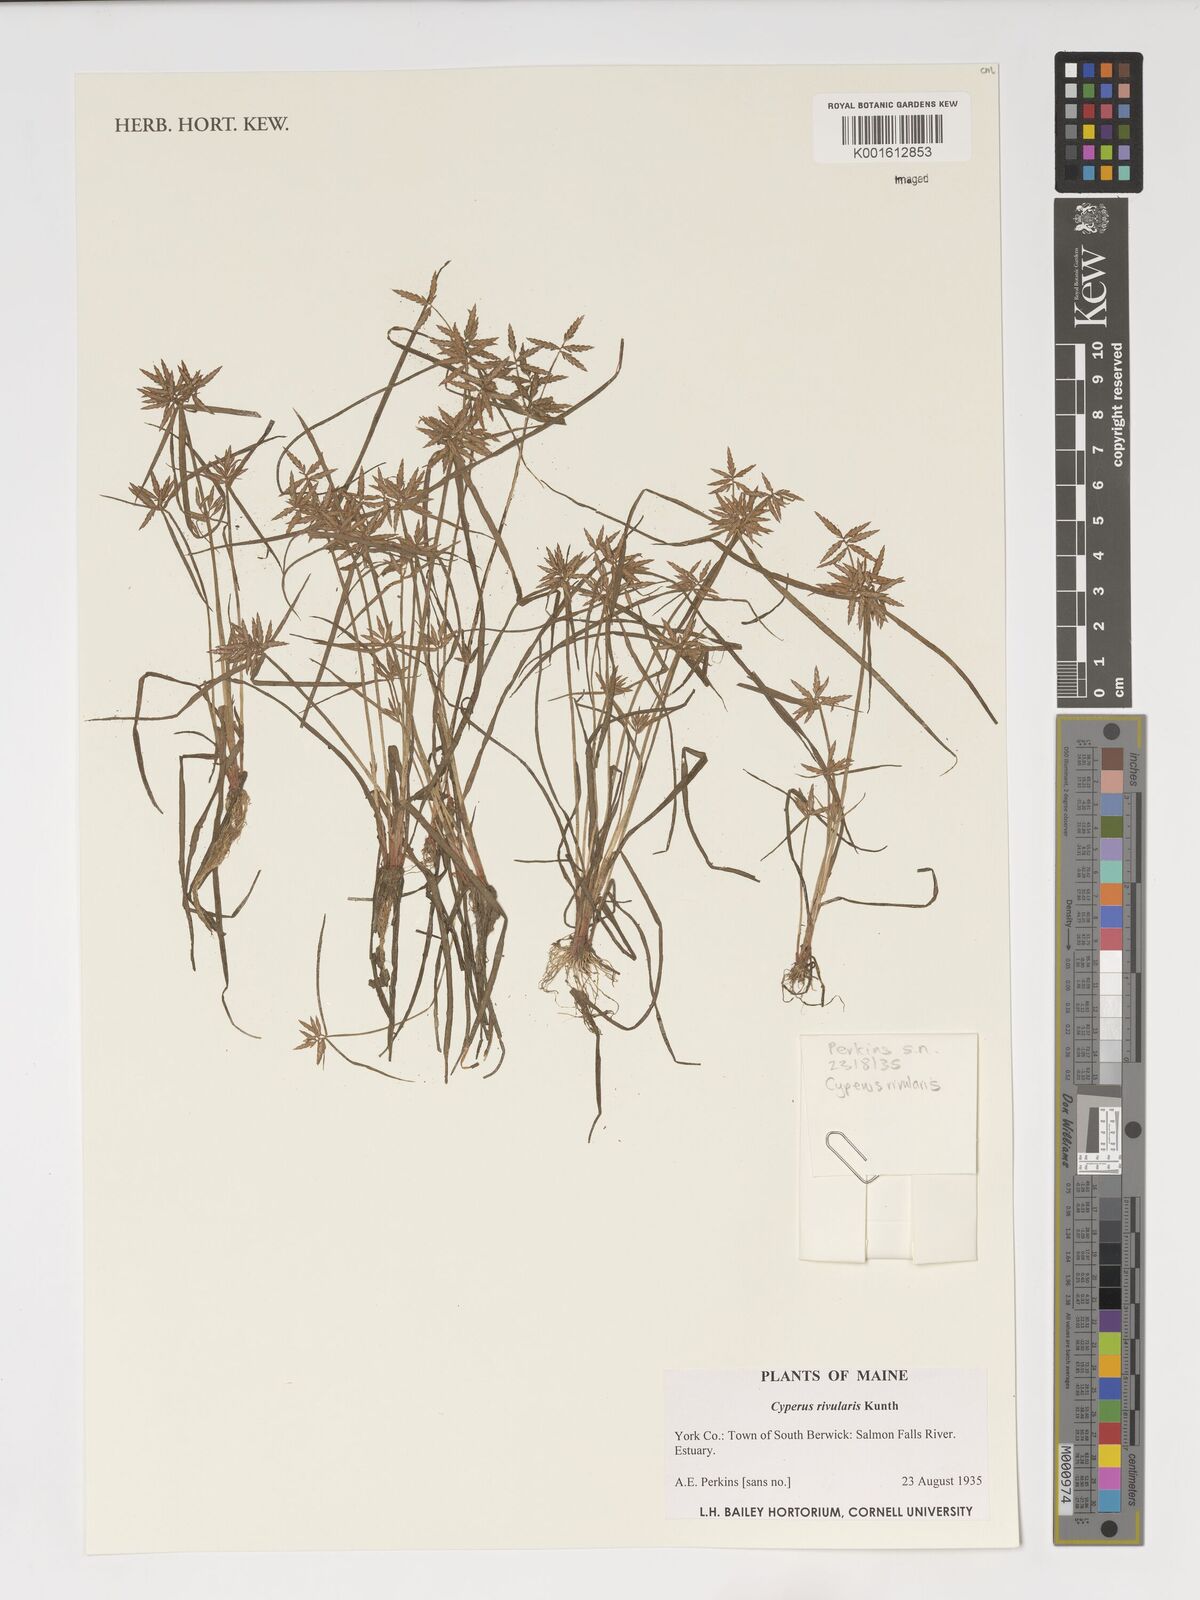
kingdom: Plantae
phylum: Tracheophyta
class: Liliopsida
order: Poales
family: Cyperaceae
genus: Cyperus
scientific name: Cyperus bipartitus
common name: Brook flatsedge
